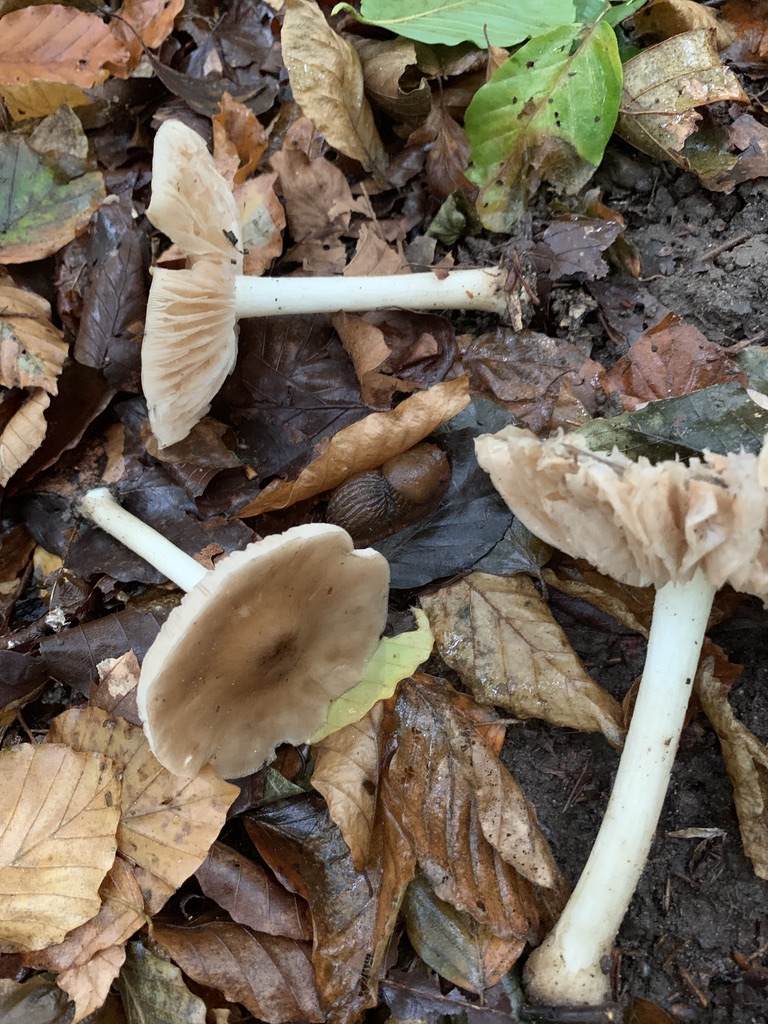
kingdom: Fungi
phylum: Basidiomycota
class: Agaricomycetes
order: Agaricales
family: Entolomataceae
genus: Entoloma
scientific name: Entoloma
